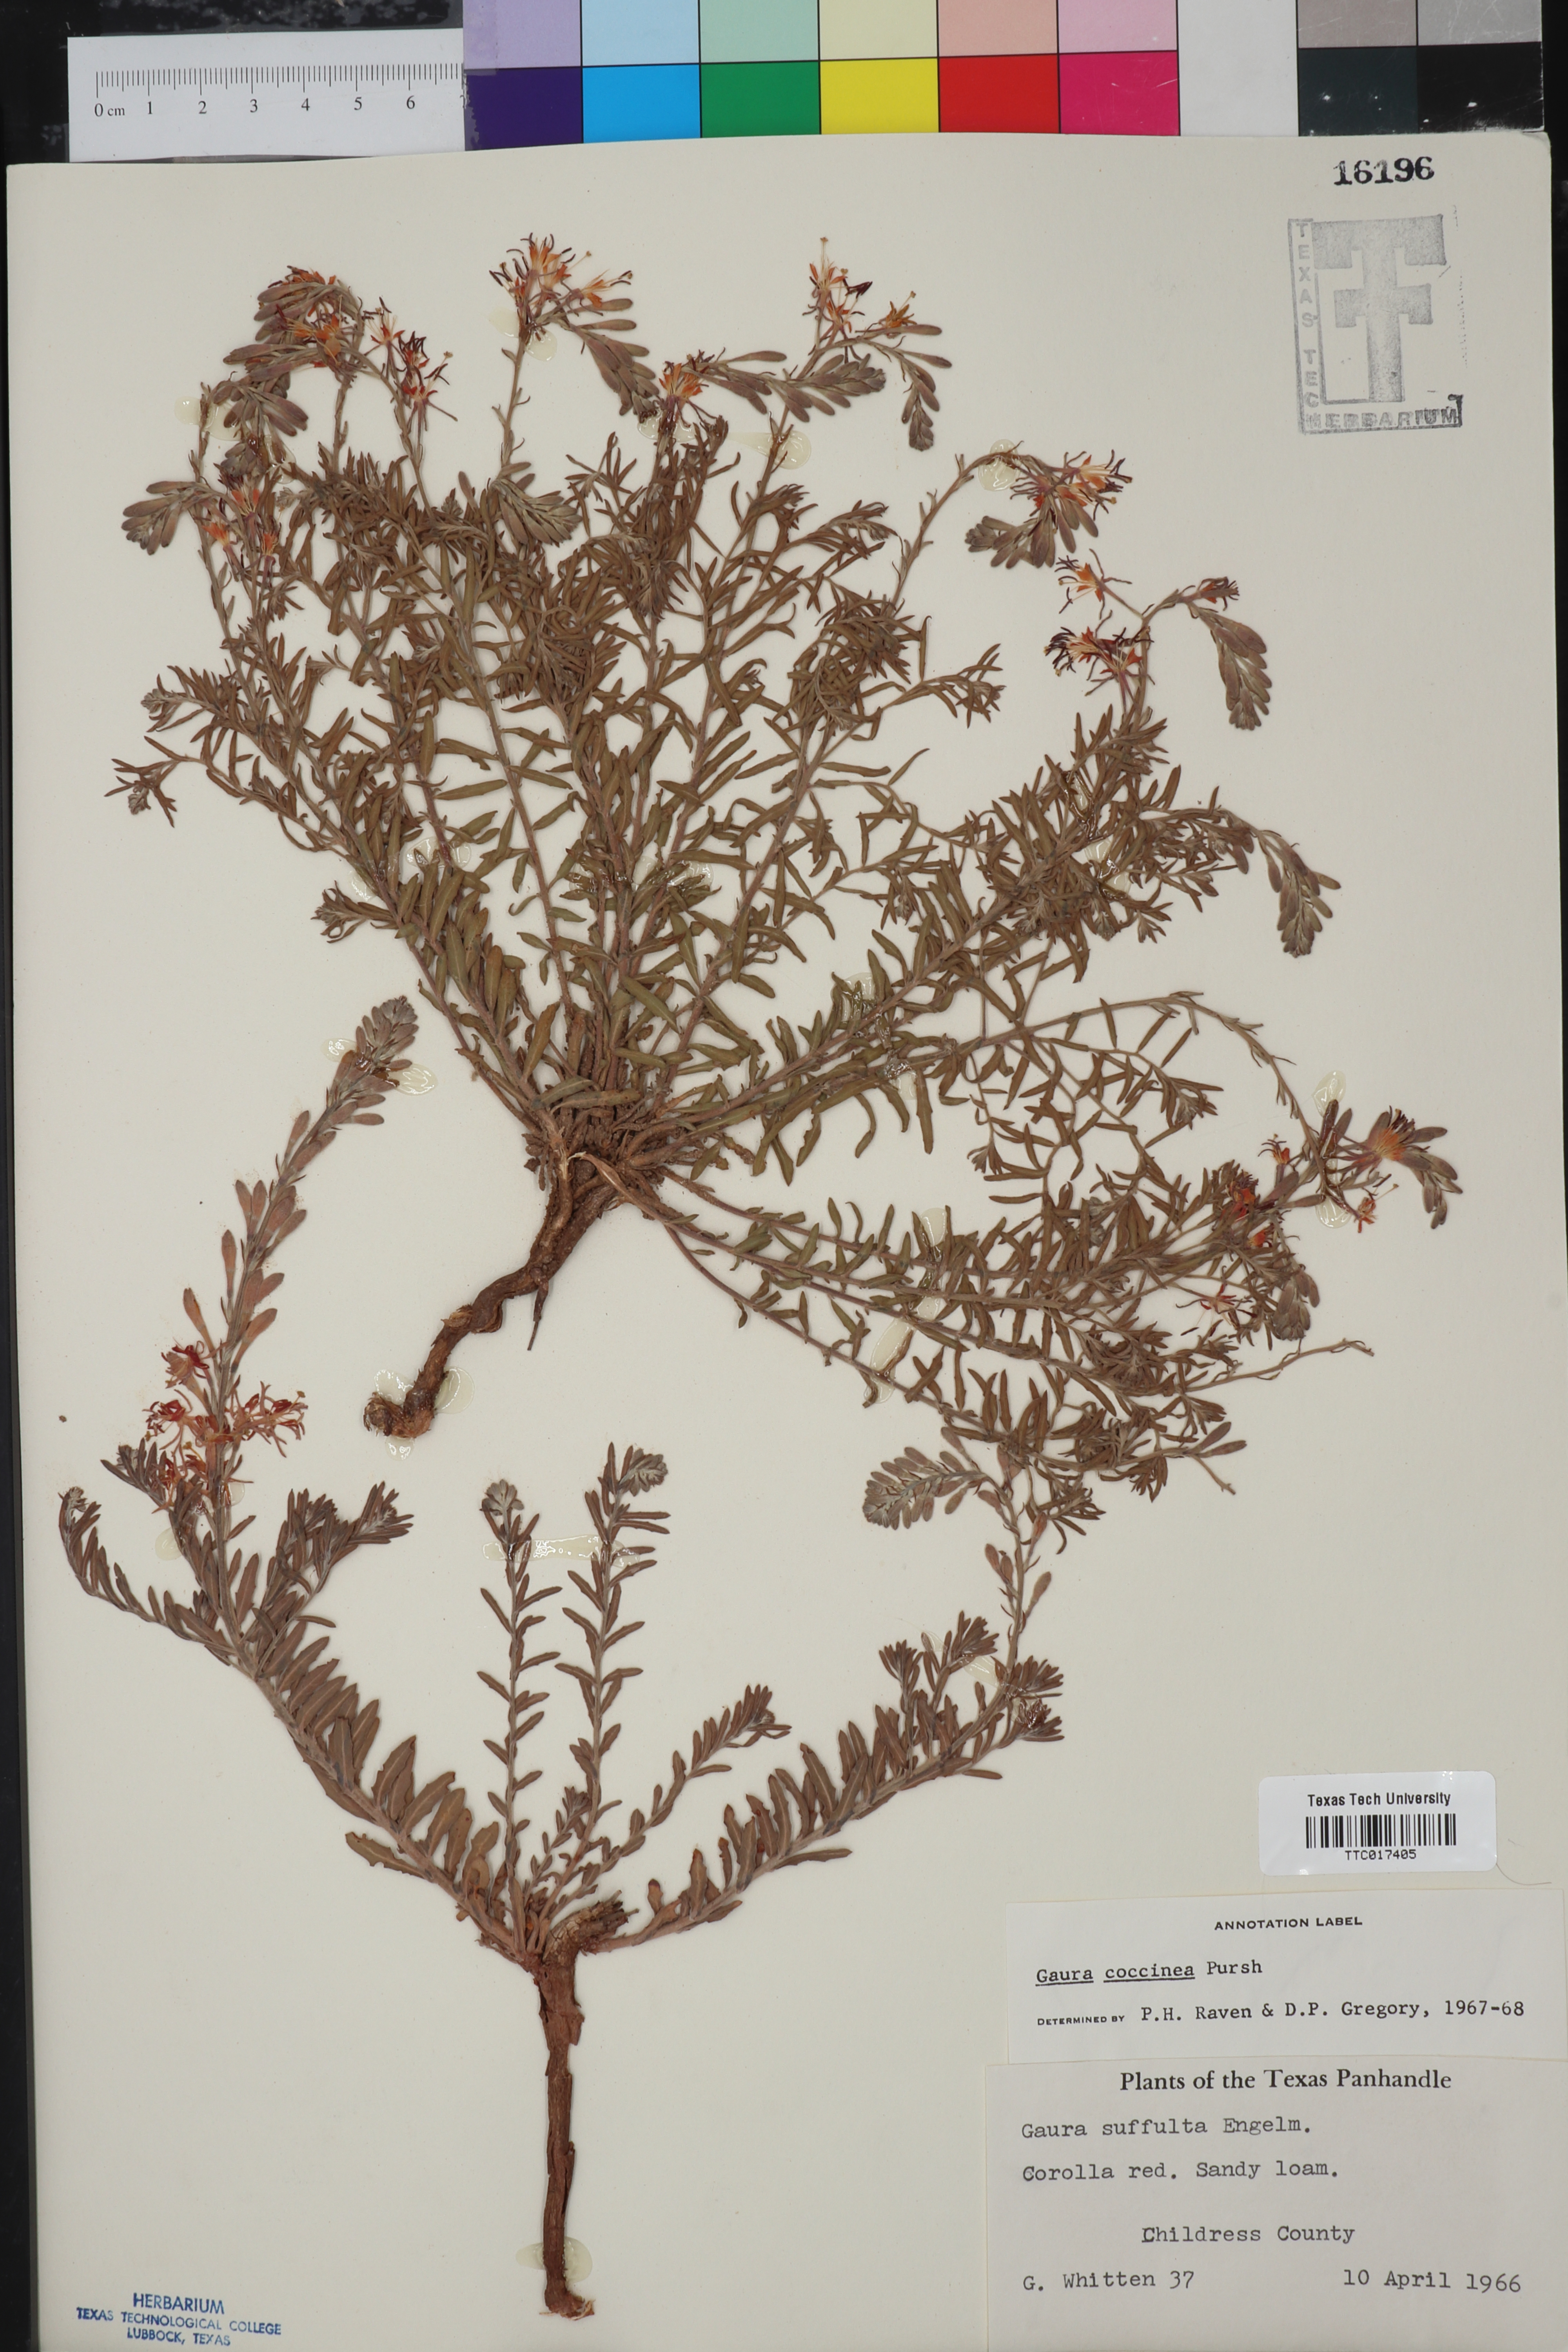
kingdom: Plantae
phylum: Tracheophyta
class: Magnoliopsida
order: Myrtales
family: Onagraceae
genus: Oenothera
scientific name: Oenothera suffrutescens
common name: Scarlet beeblossom
